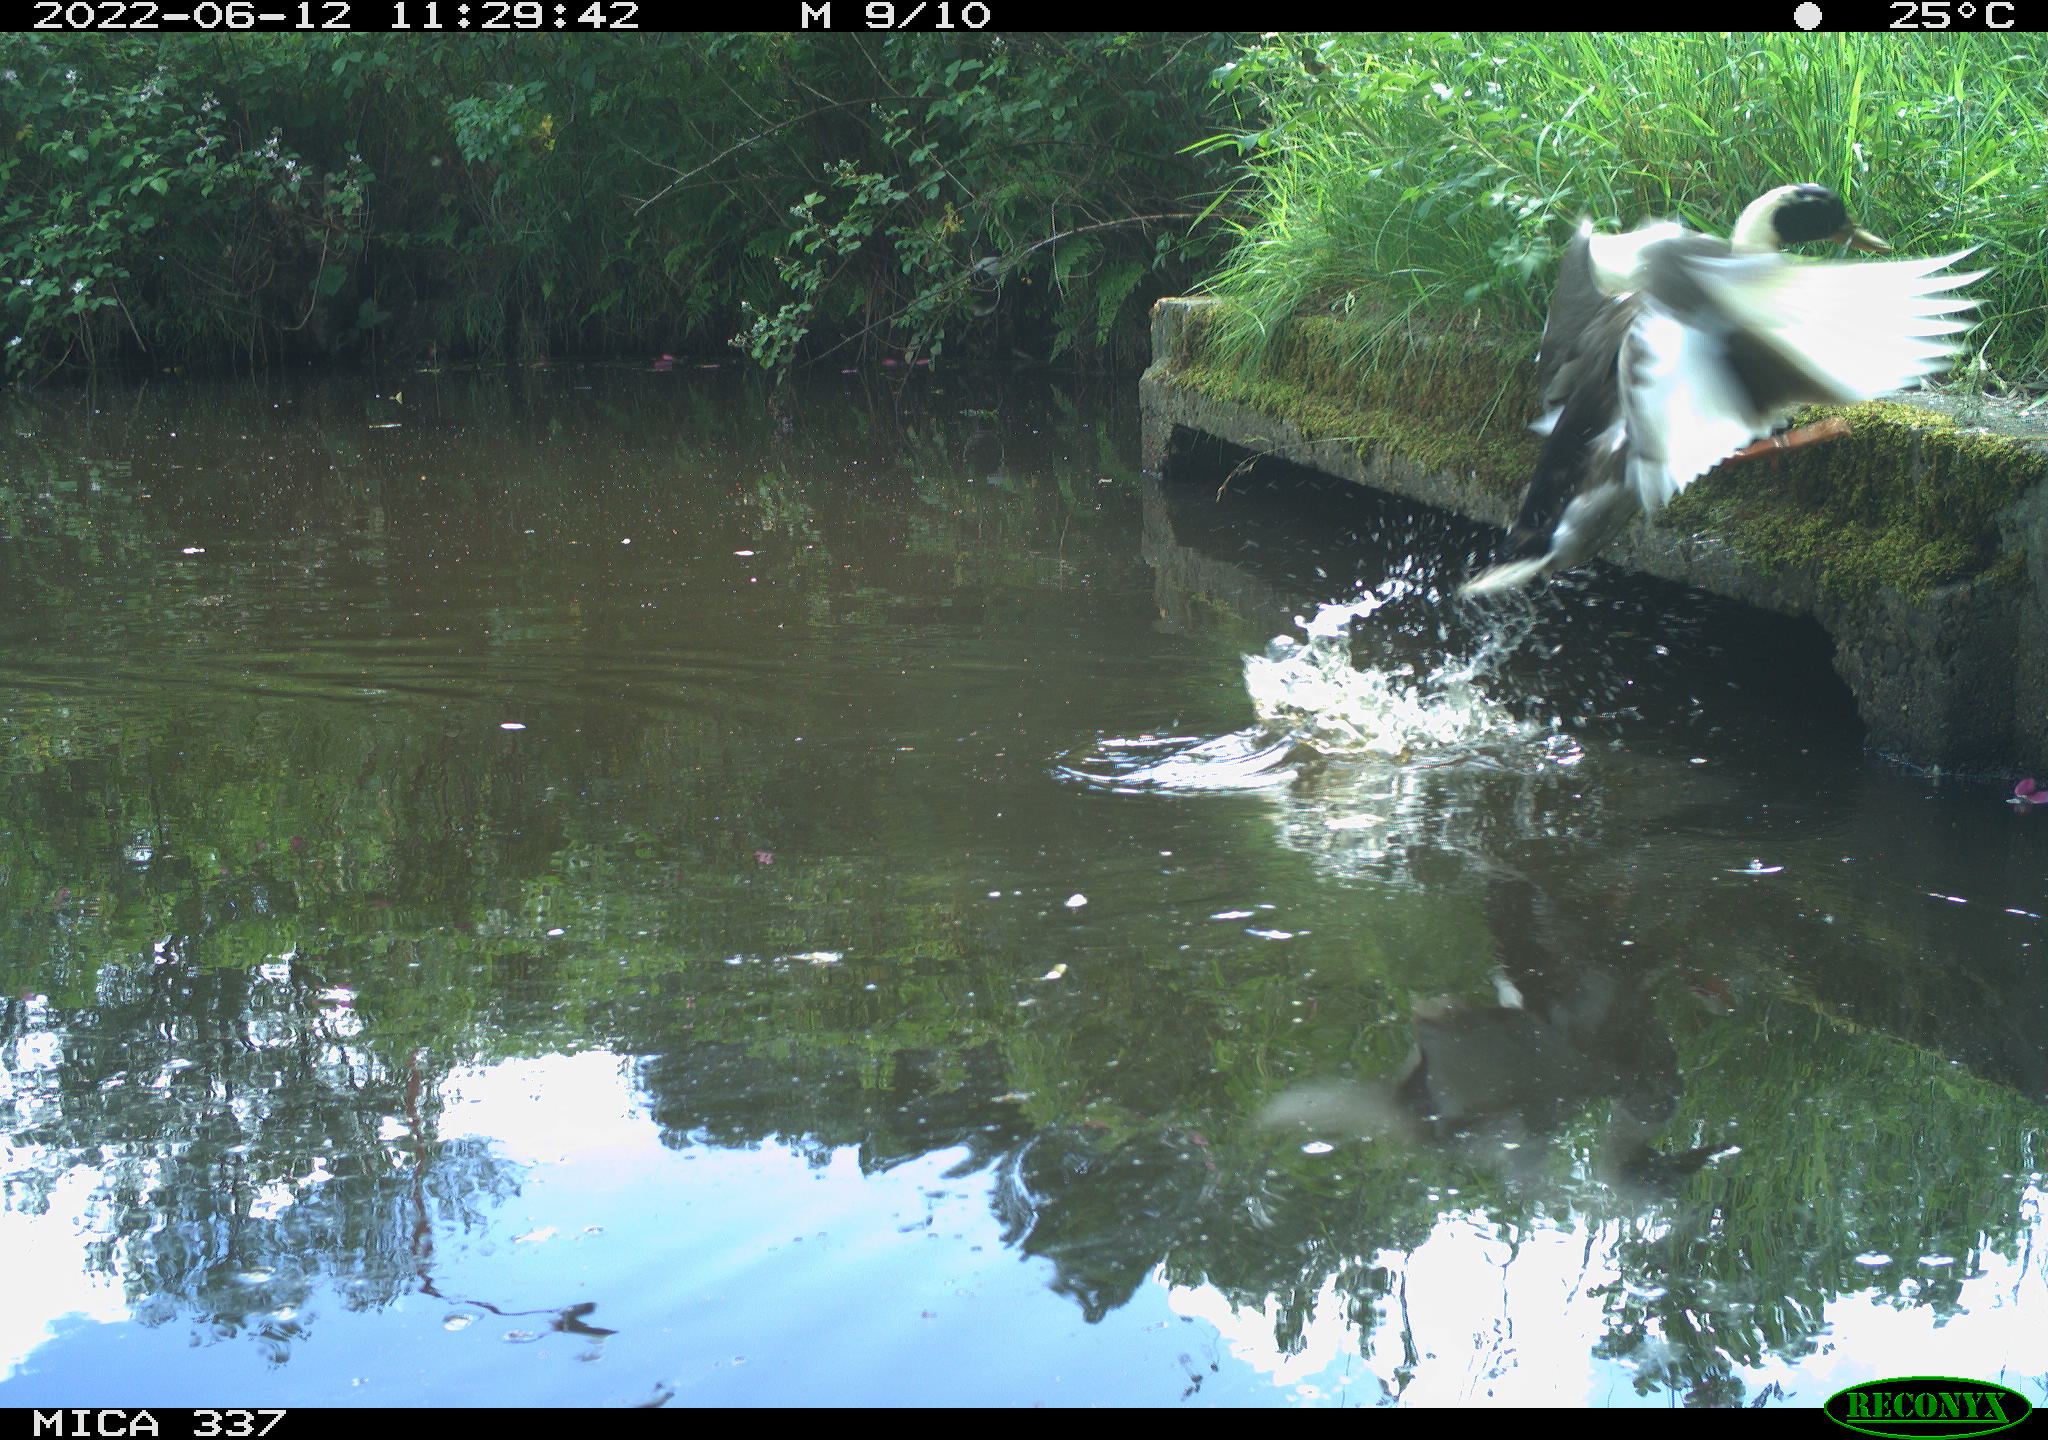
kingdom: Animalia
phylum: Chordata
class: Aves
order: Anseriformes
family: Anatidae
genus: Anas
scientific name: Anas platyrhynchos
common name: Mallard
